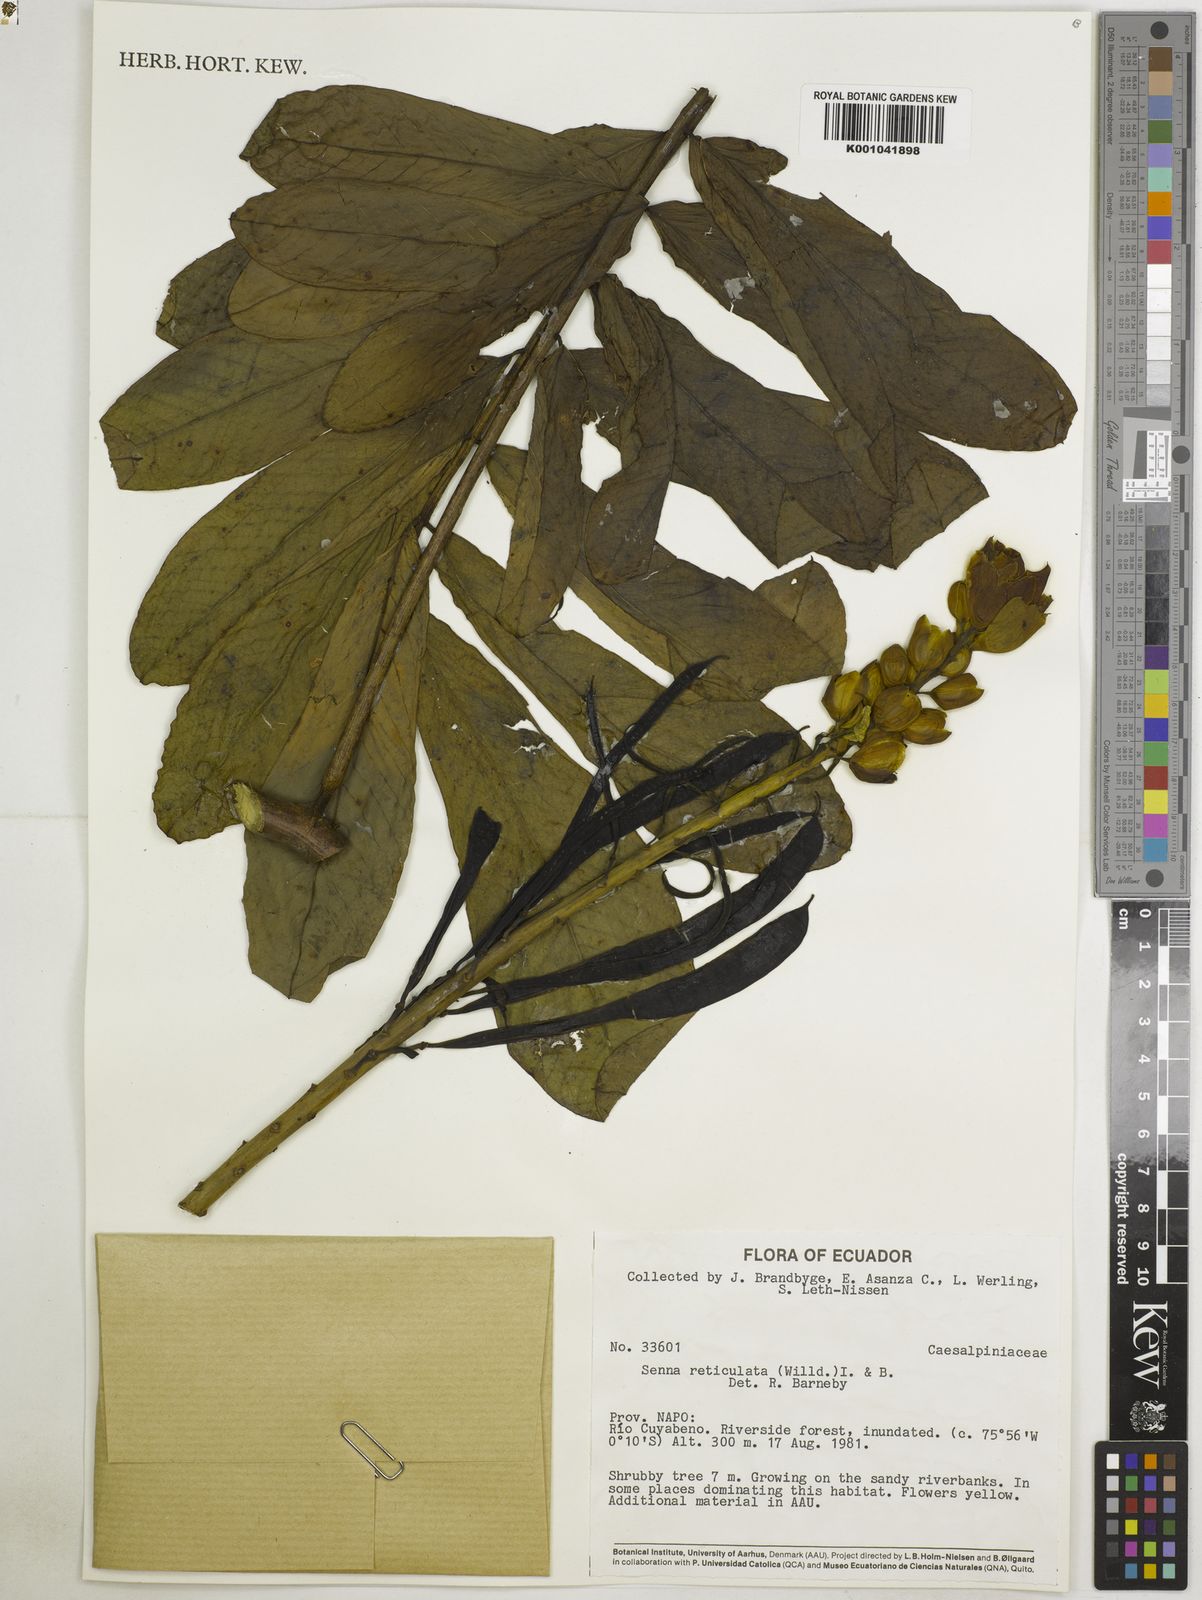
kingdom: Plantae
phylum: Tracheophyta
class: Magnoliopsida
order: Fabales
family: Fabaceae
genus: Senna
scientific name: Senna reticulata
